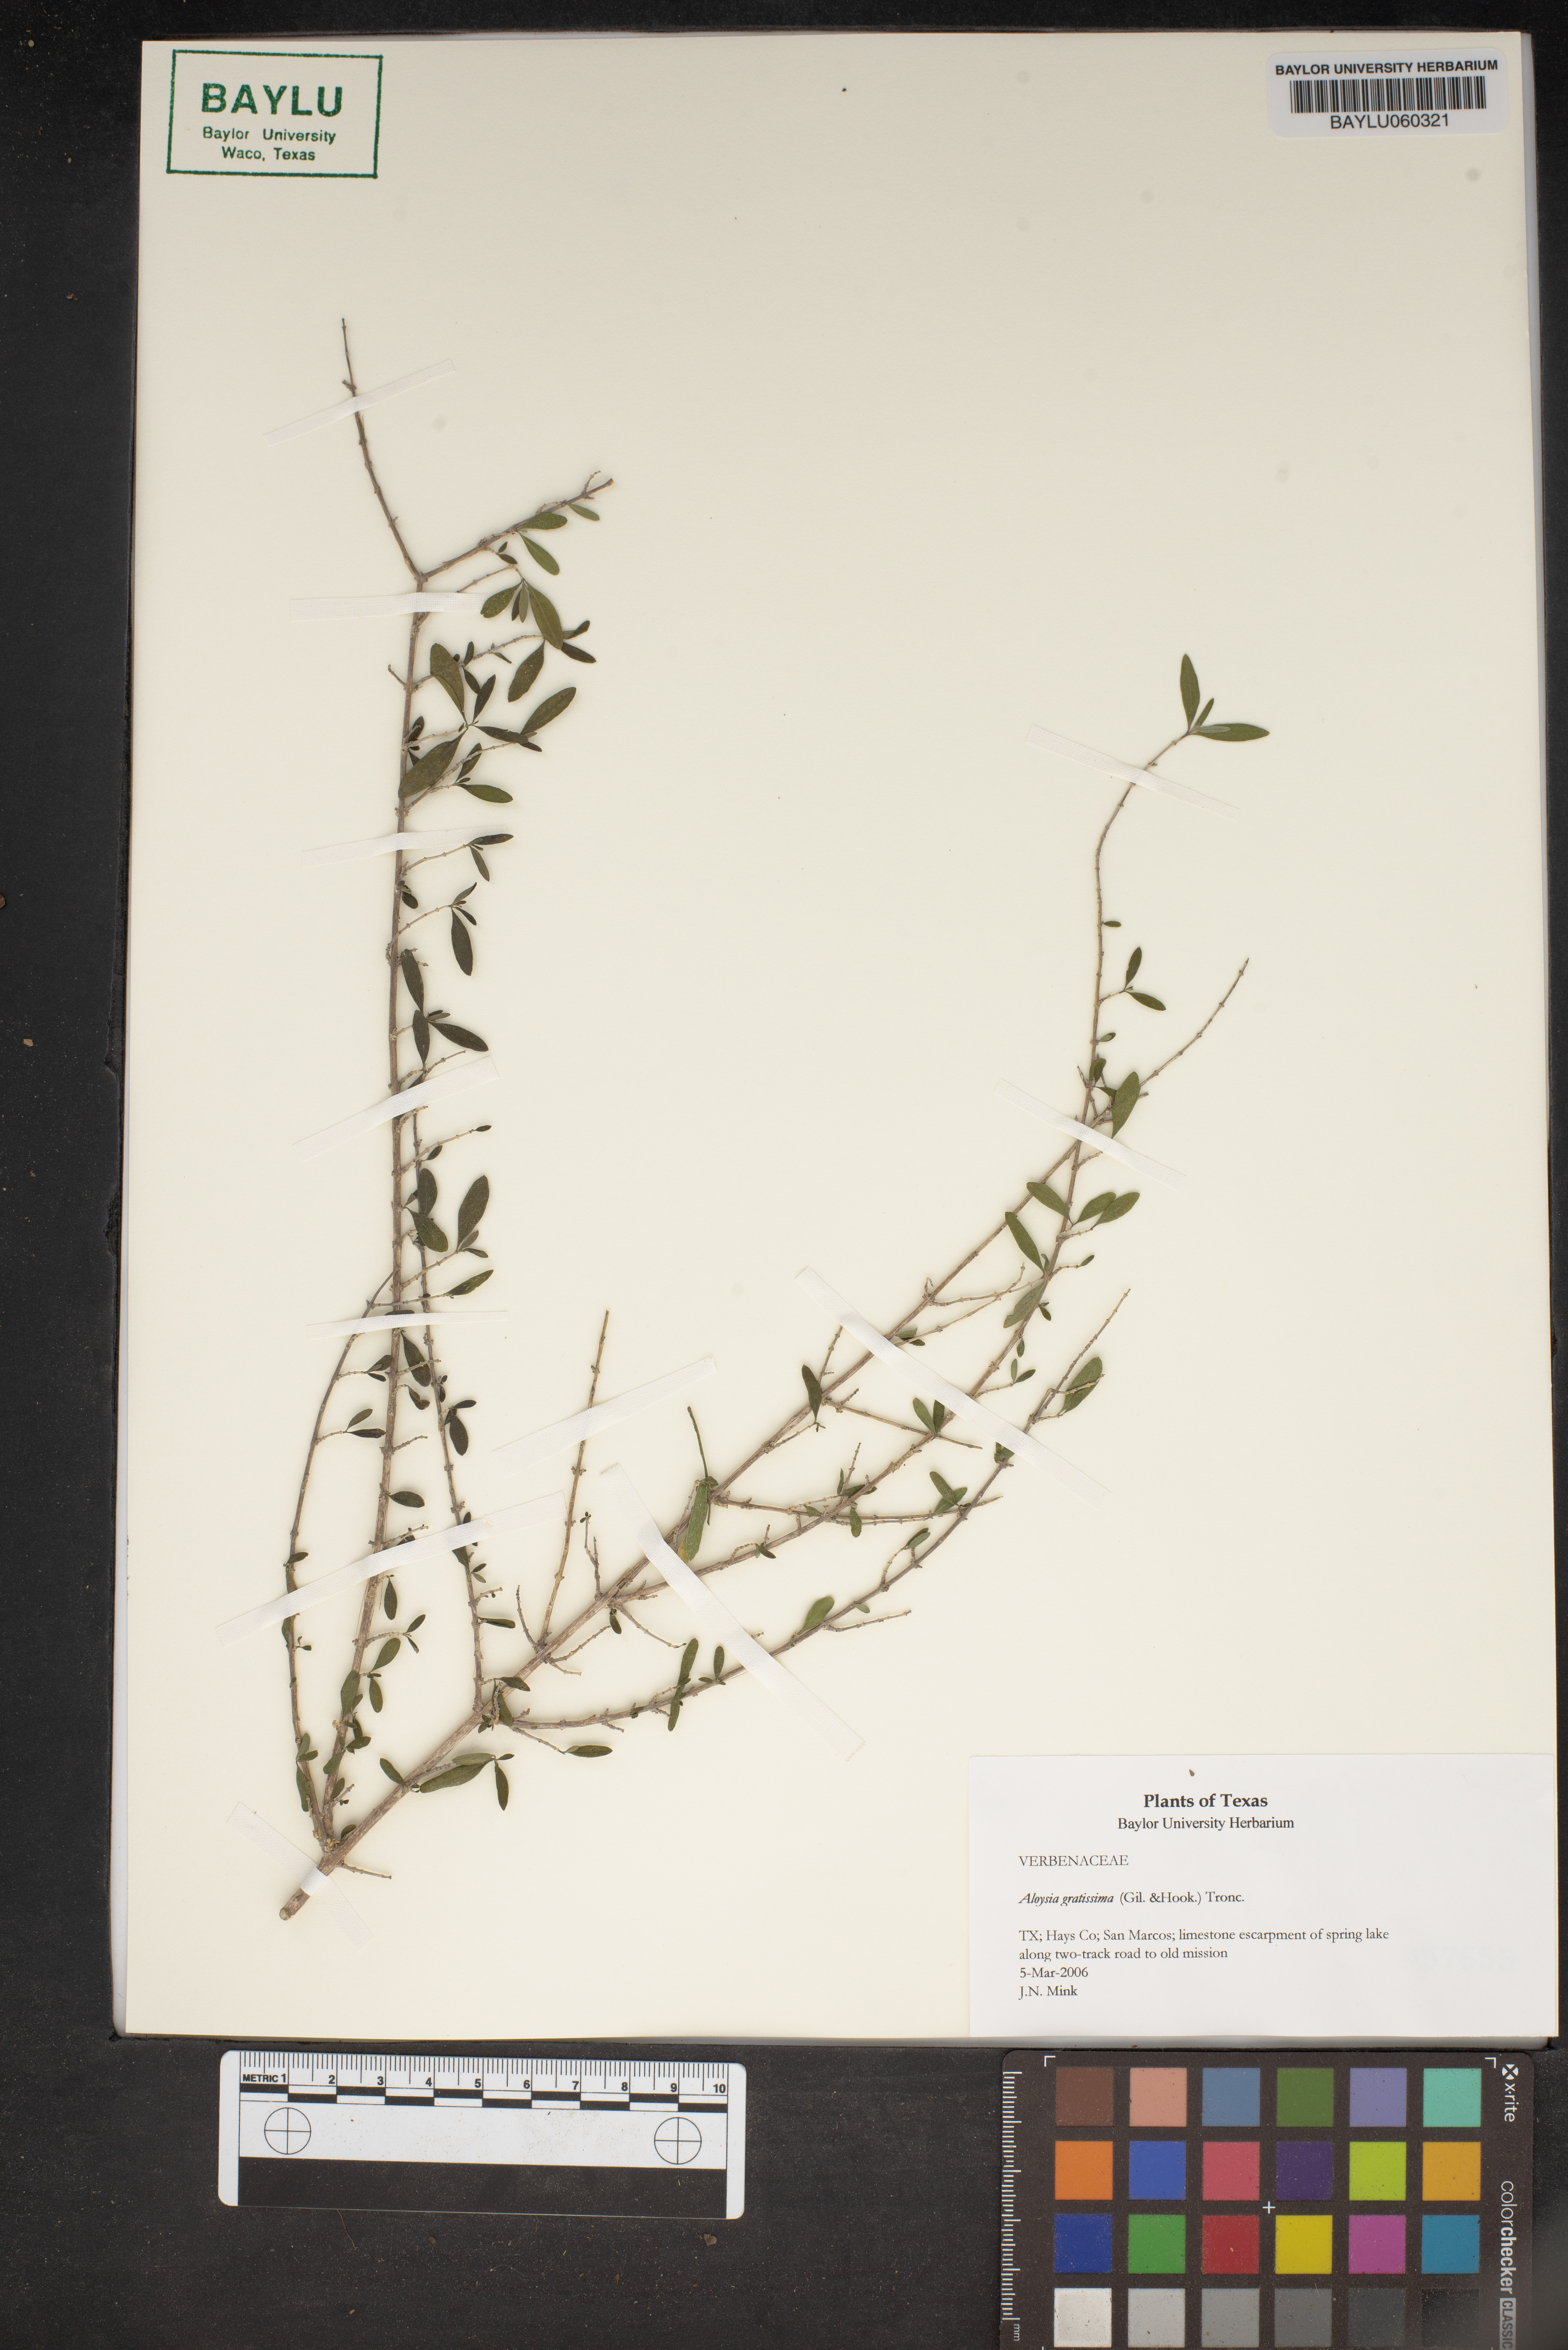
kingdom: Plantae
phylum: Tracheophyta
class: Magnoliopsida
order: Lamiales
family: Verbenaceae
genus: Aloysia
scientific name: Aloysia gratissima
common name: Common bee-brush
